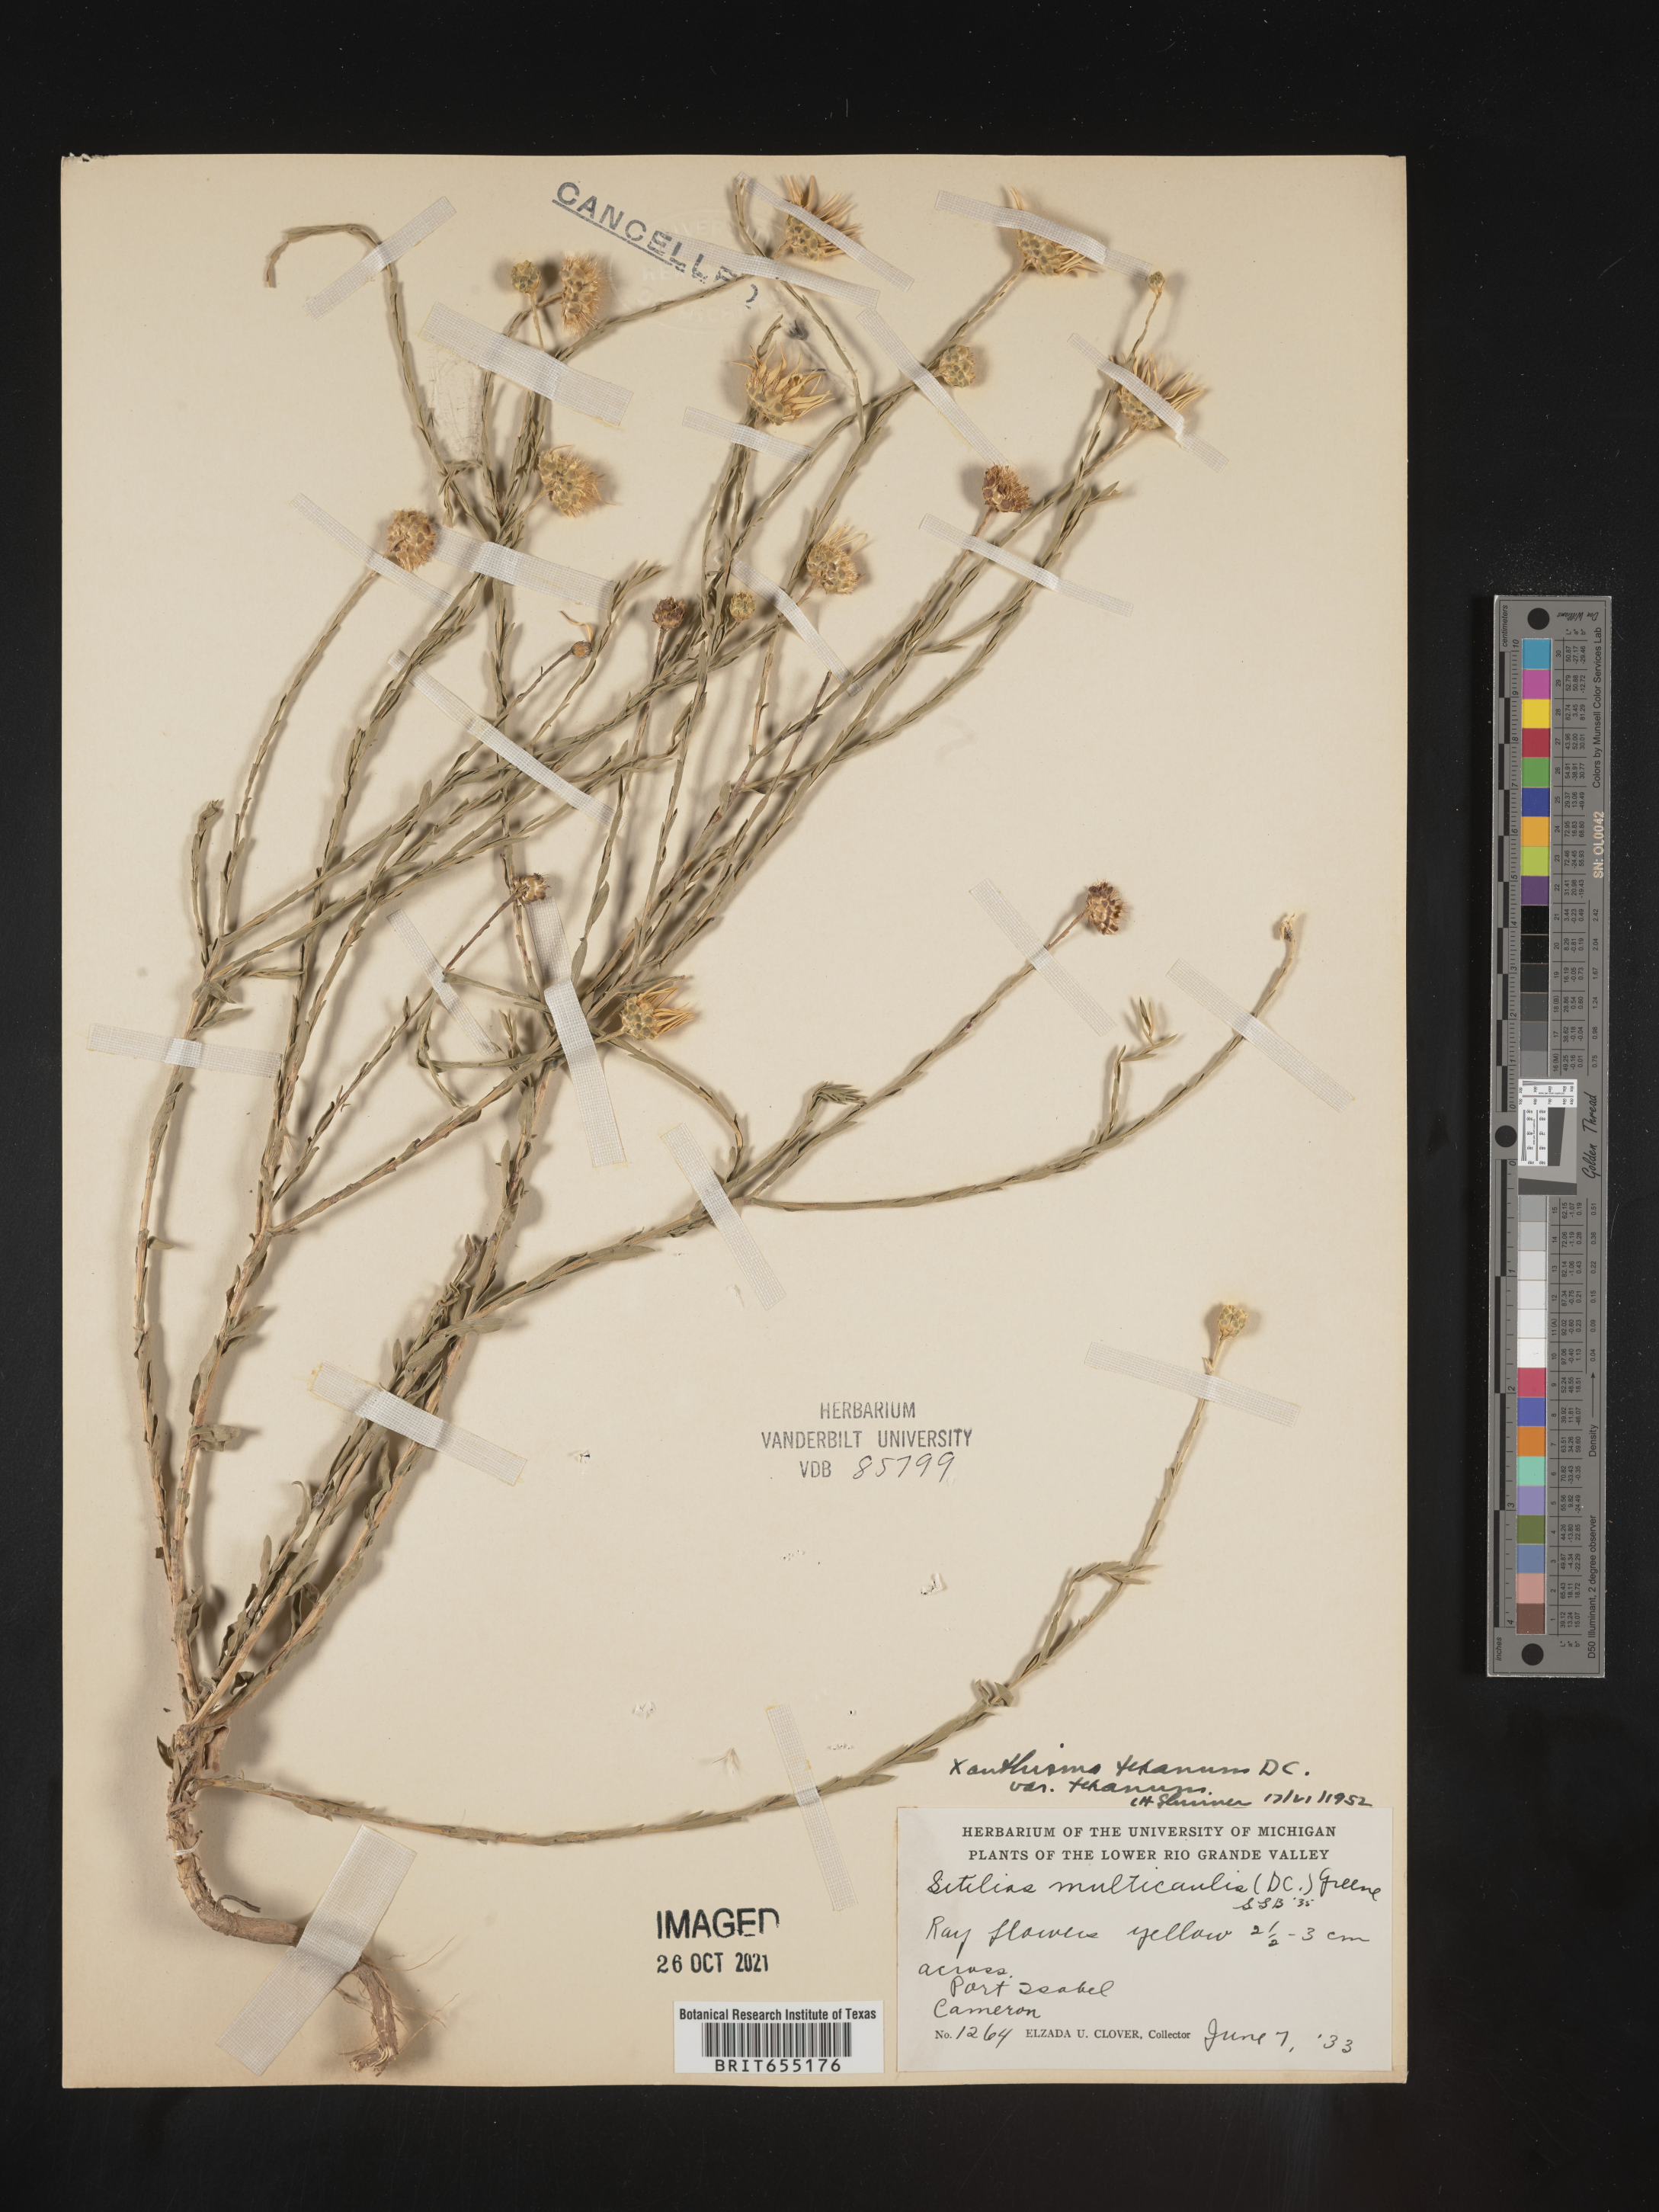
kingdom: Plantae
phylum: Tracheophyta
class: Magnoliopsida
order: Asterales
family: Asteraceae
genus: Xanthisma
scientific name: Xanthisma texanum
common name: Texas sleepy daisy
